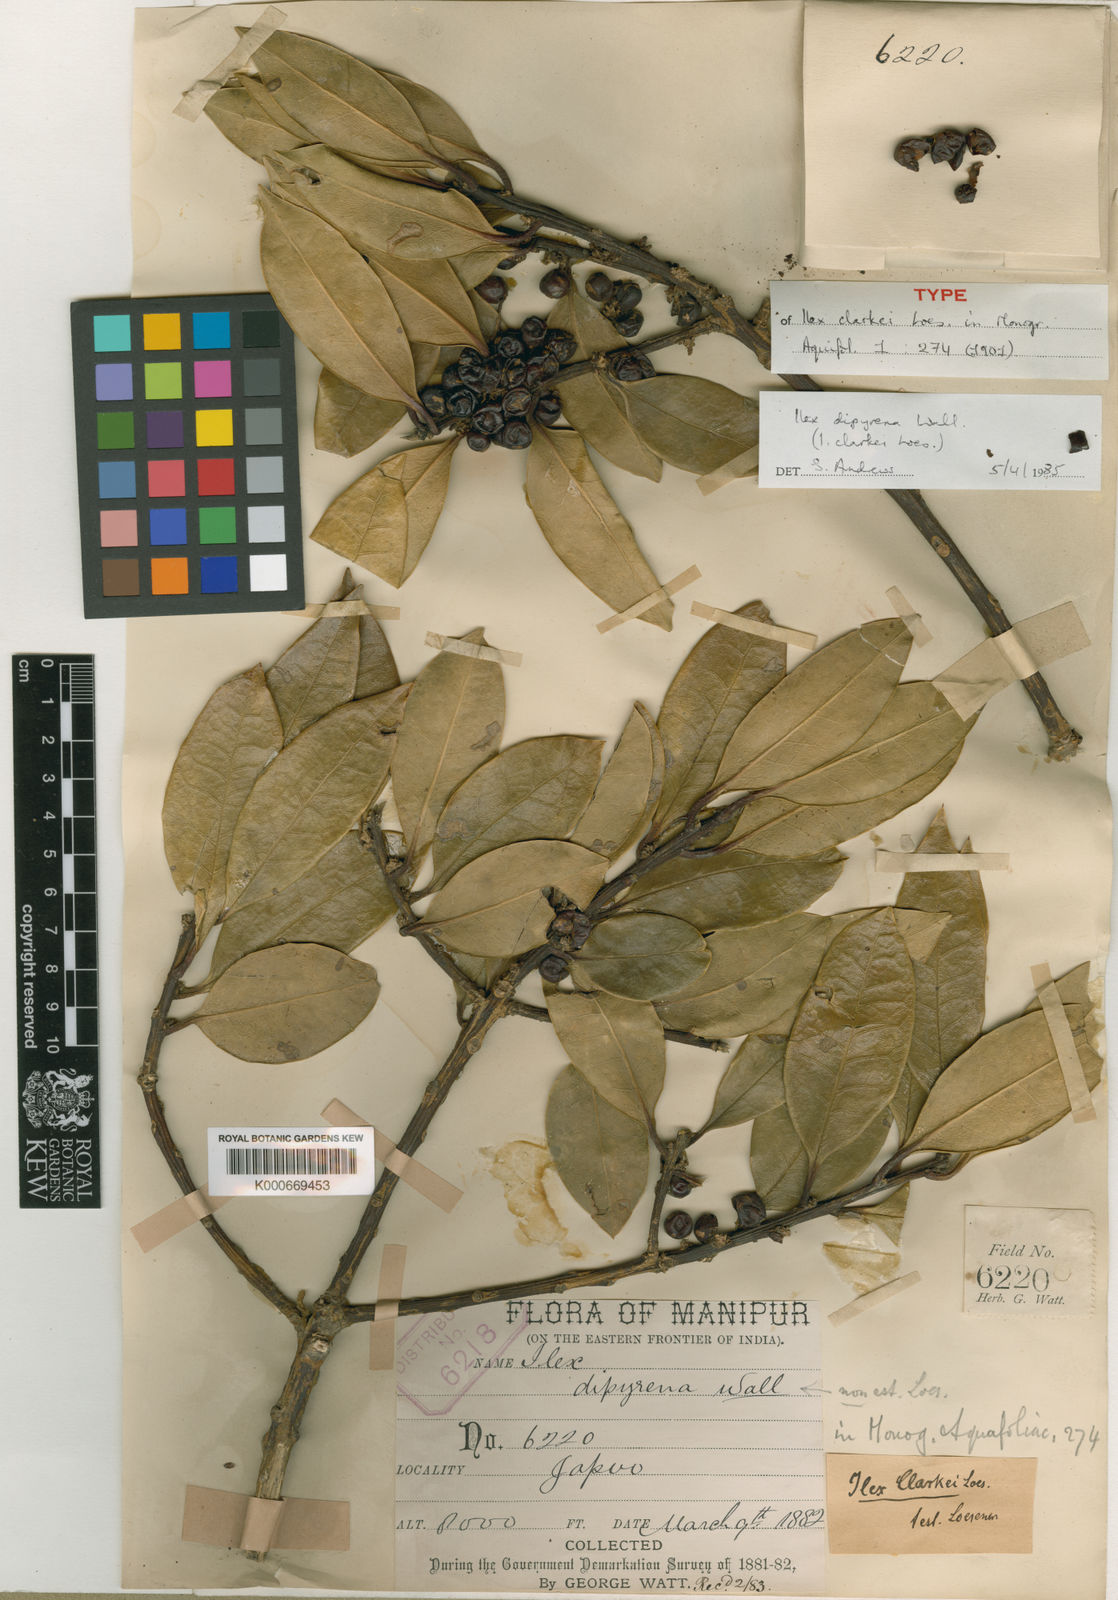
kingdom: Plantae
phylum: Tracheophyta
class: Magnoliopsida
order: Aquifoliales
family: Aquifoliaceae
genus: Ilex
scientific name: Ilex dipyrena
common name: Himalayan holly
